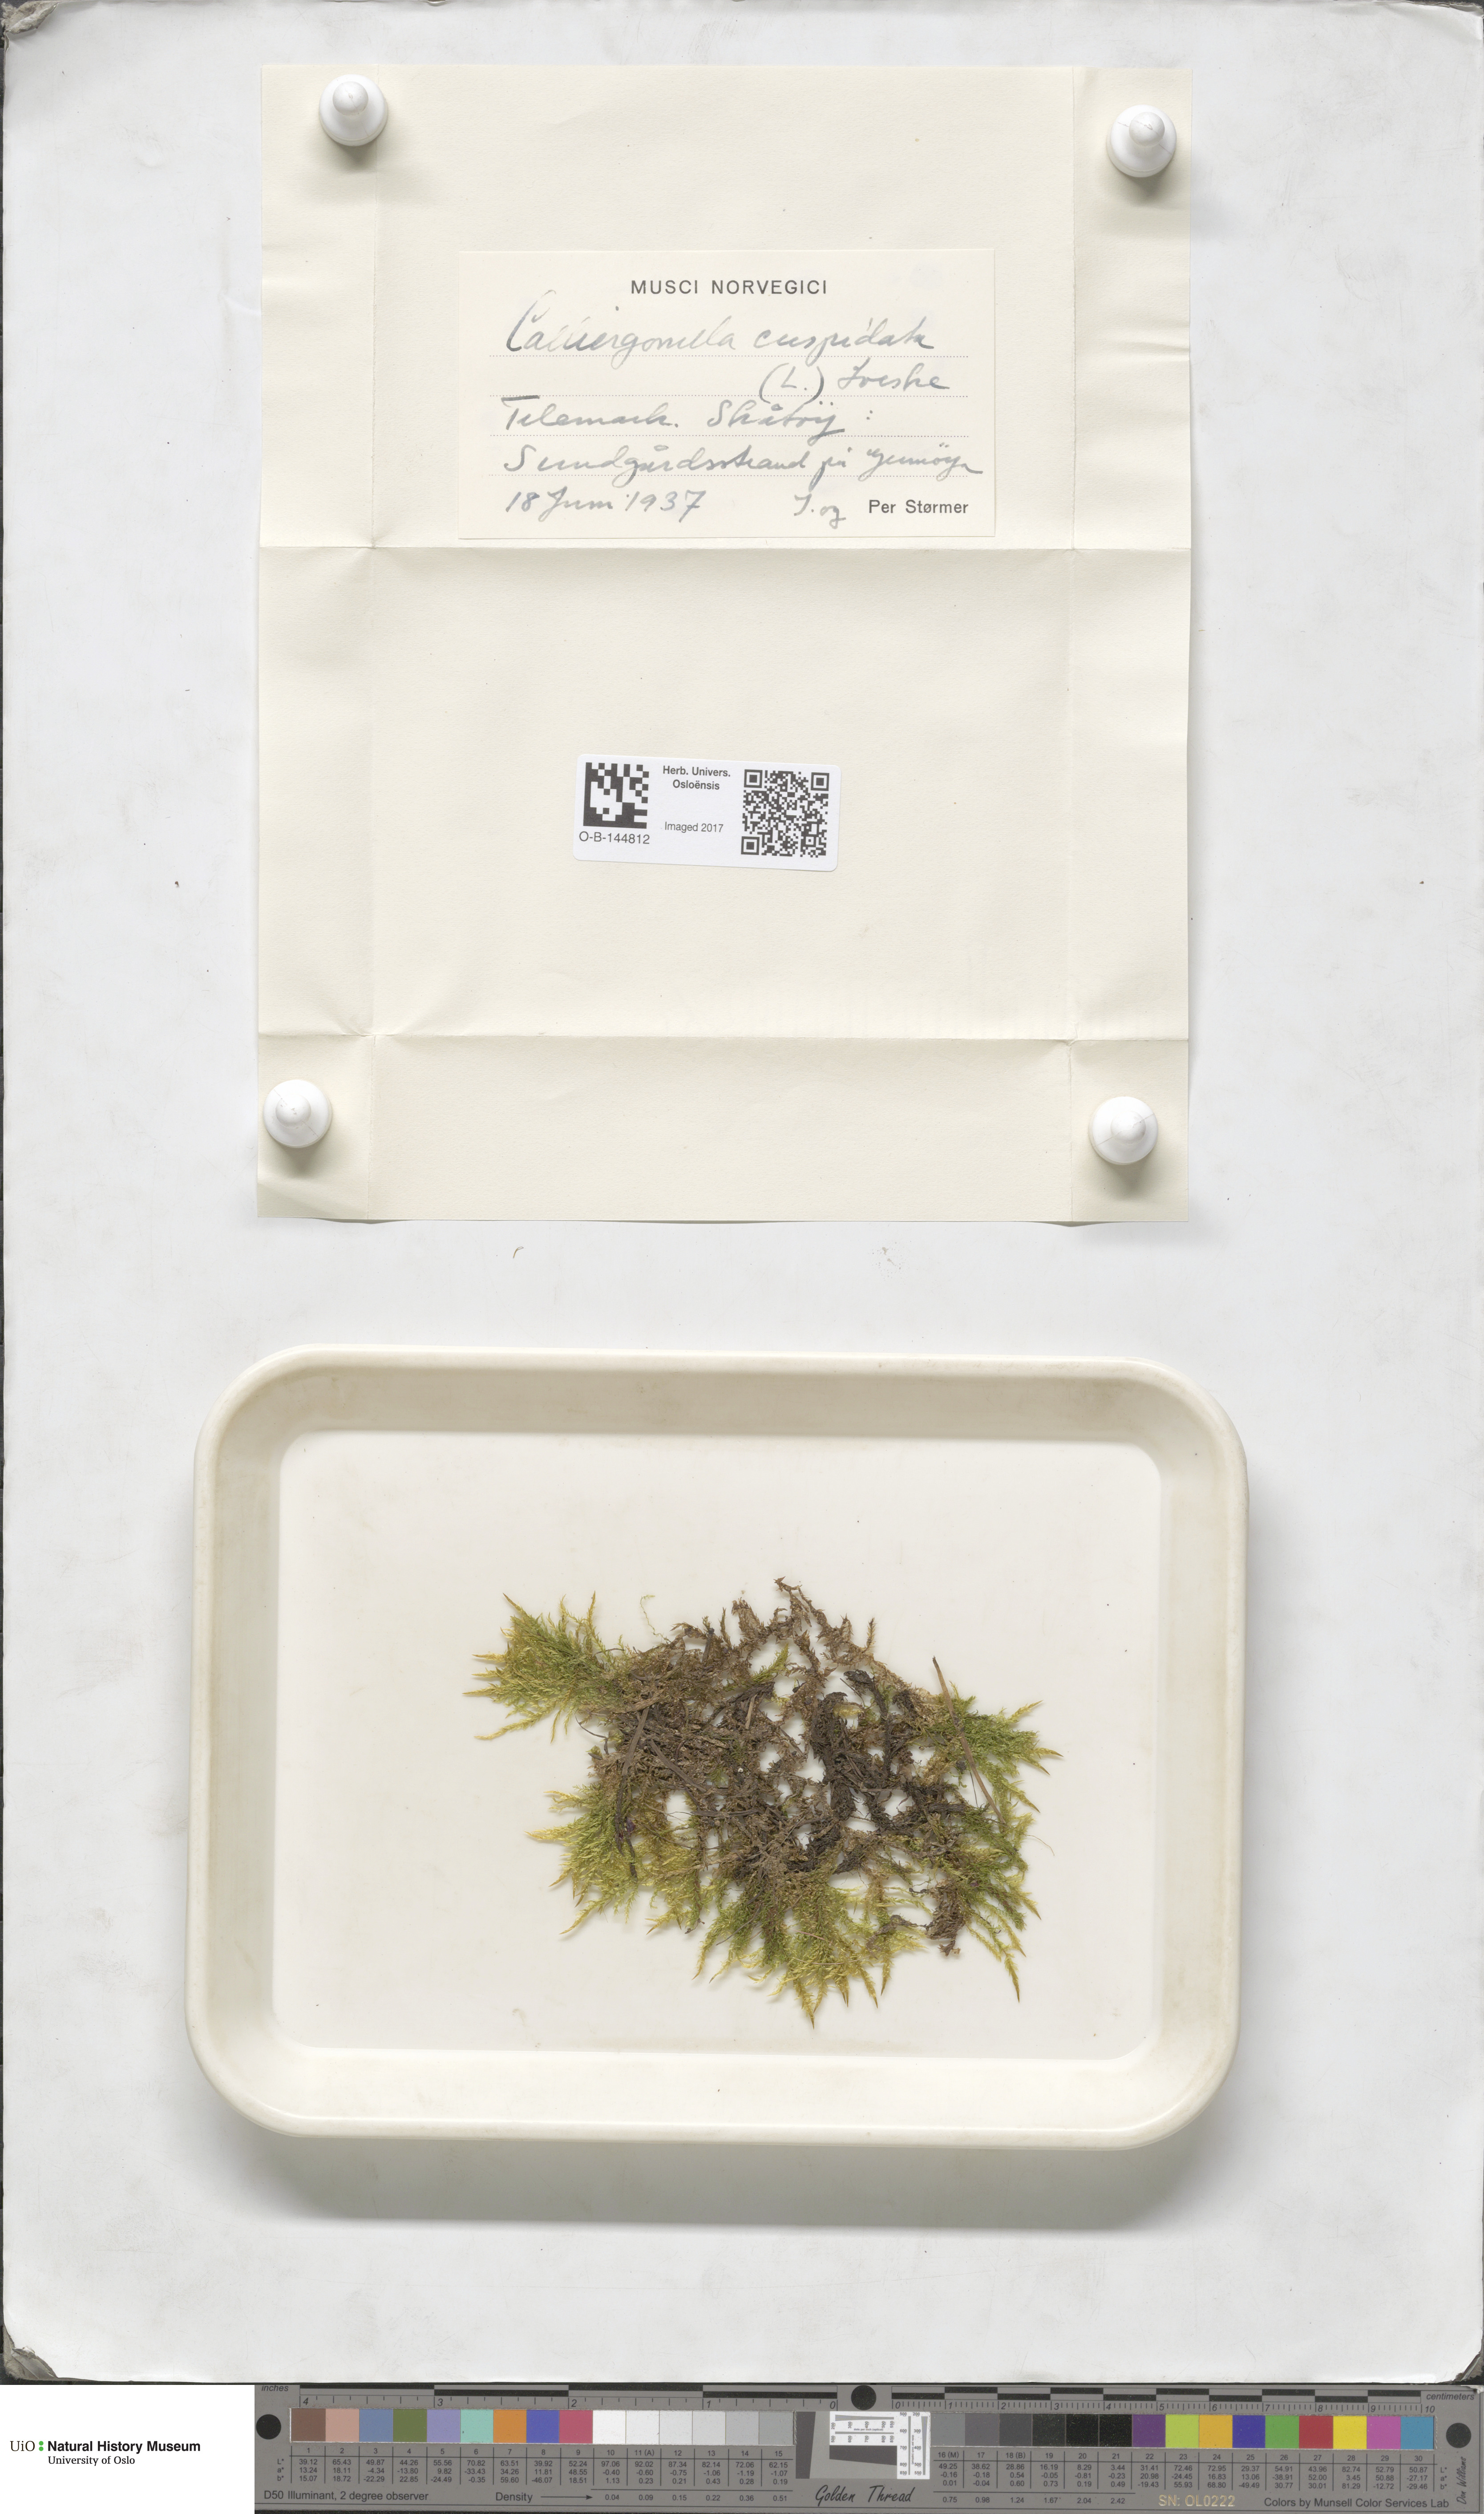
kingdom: Plantae
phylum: Bryophyta
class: Bryopsida
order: Hypnales
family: Pylaisiaceae
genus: Calliergonella
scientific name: Calliergonella cuspidata
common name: Common large wetland moss
